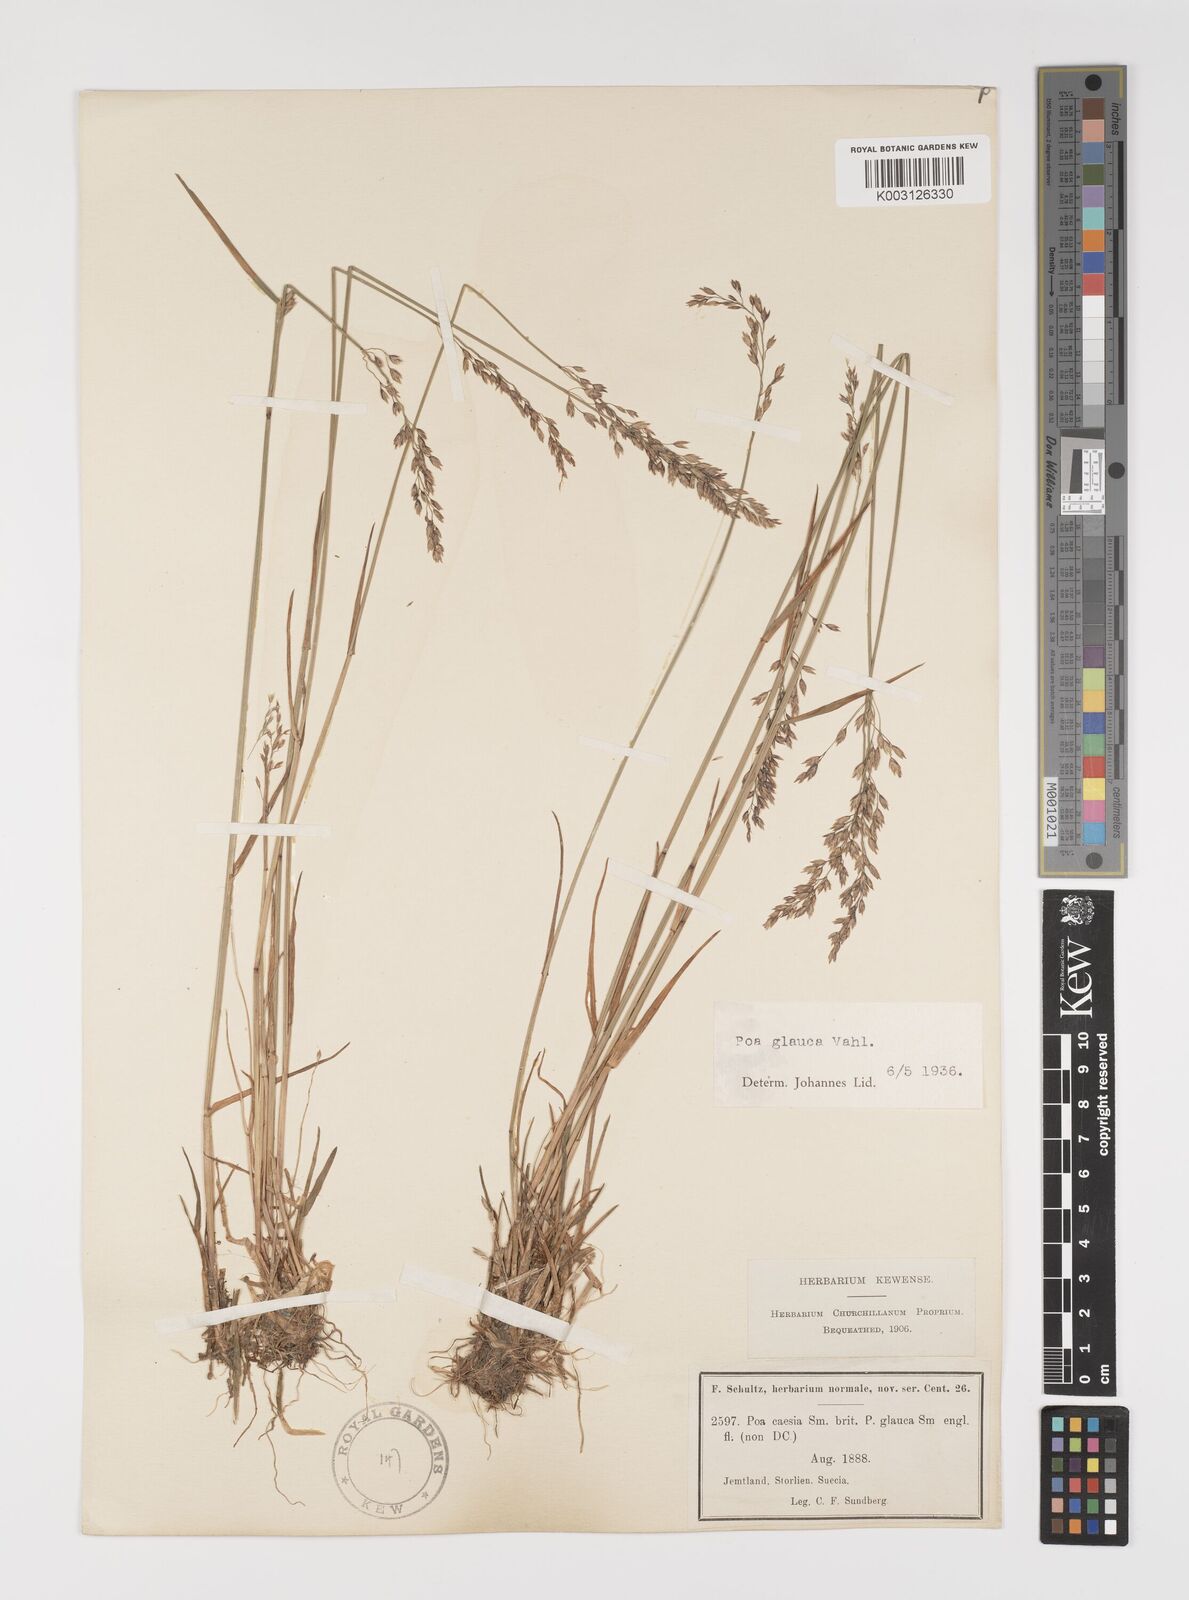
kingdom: Plantae
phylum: Tracheophyta
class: Liliopsida
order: Poales
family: Poaceae
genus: Poa
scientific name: Poa glauca
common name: Glaucous bluegrass
